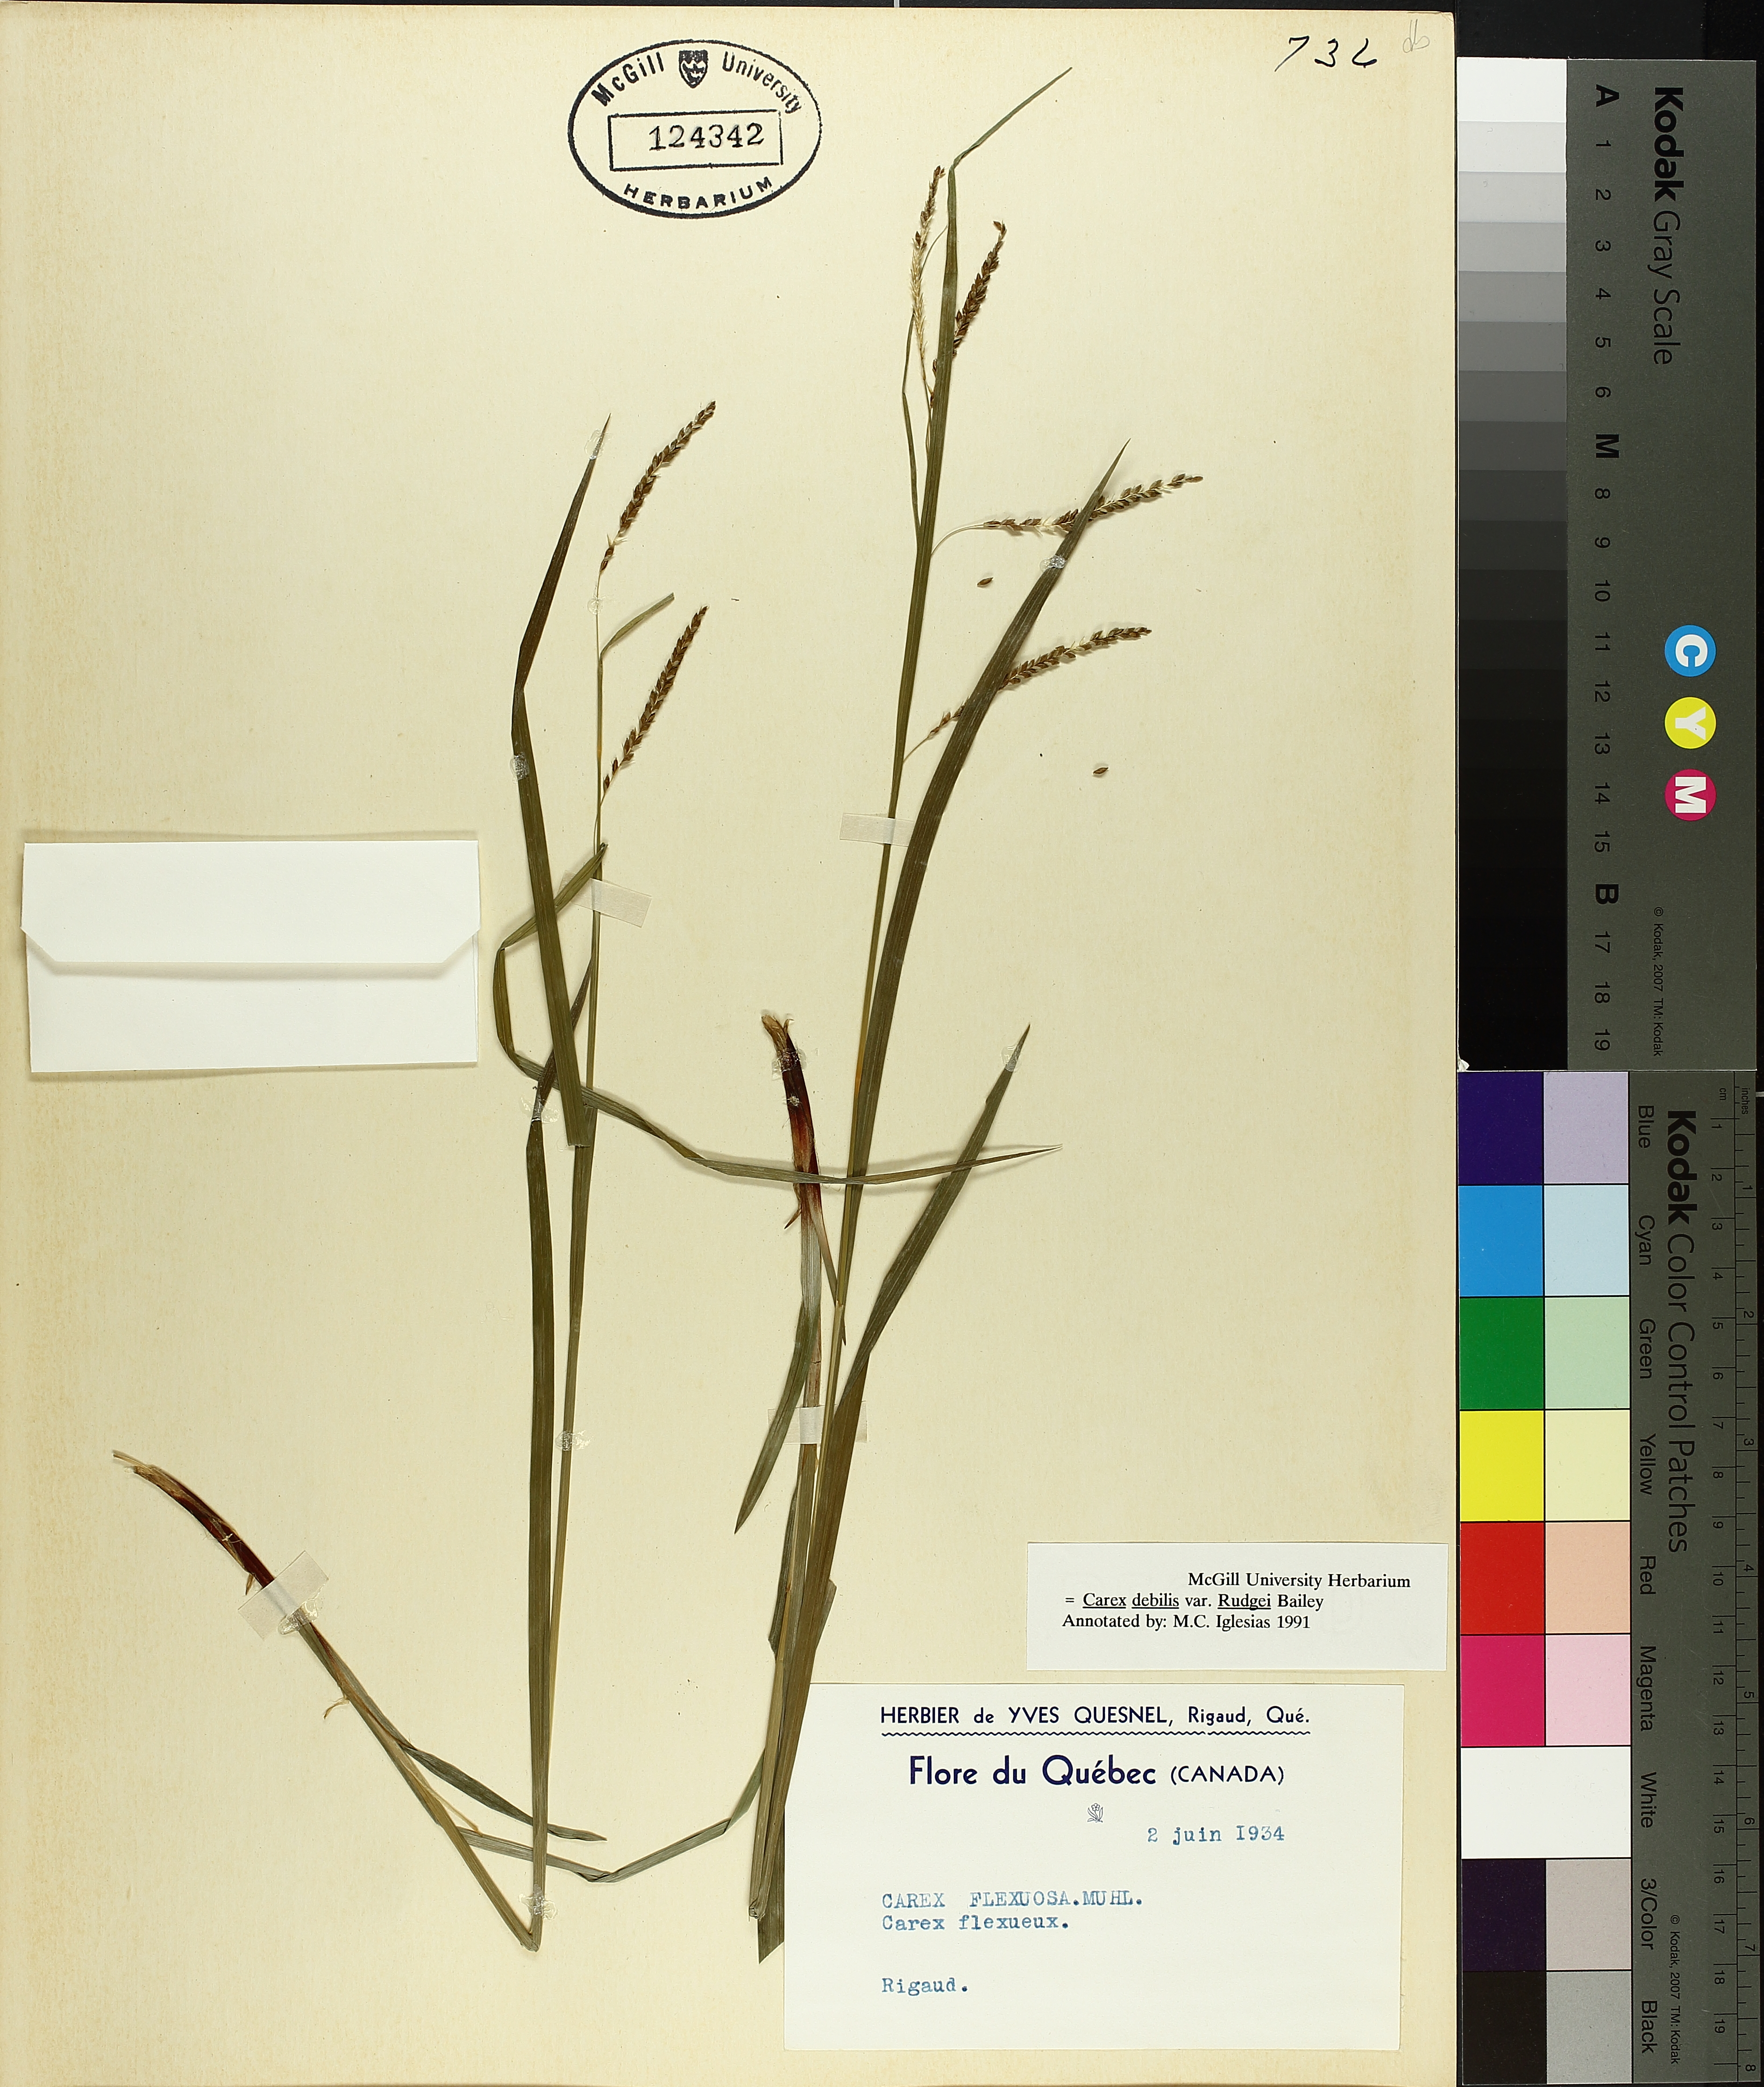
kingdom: Plantae
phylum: Tracheophyta
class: Liliopsida
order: Poales
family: Cyperaceae
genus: Carex
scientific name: Carex debilis
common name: White-edge sedge
